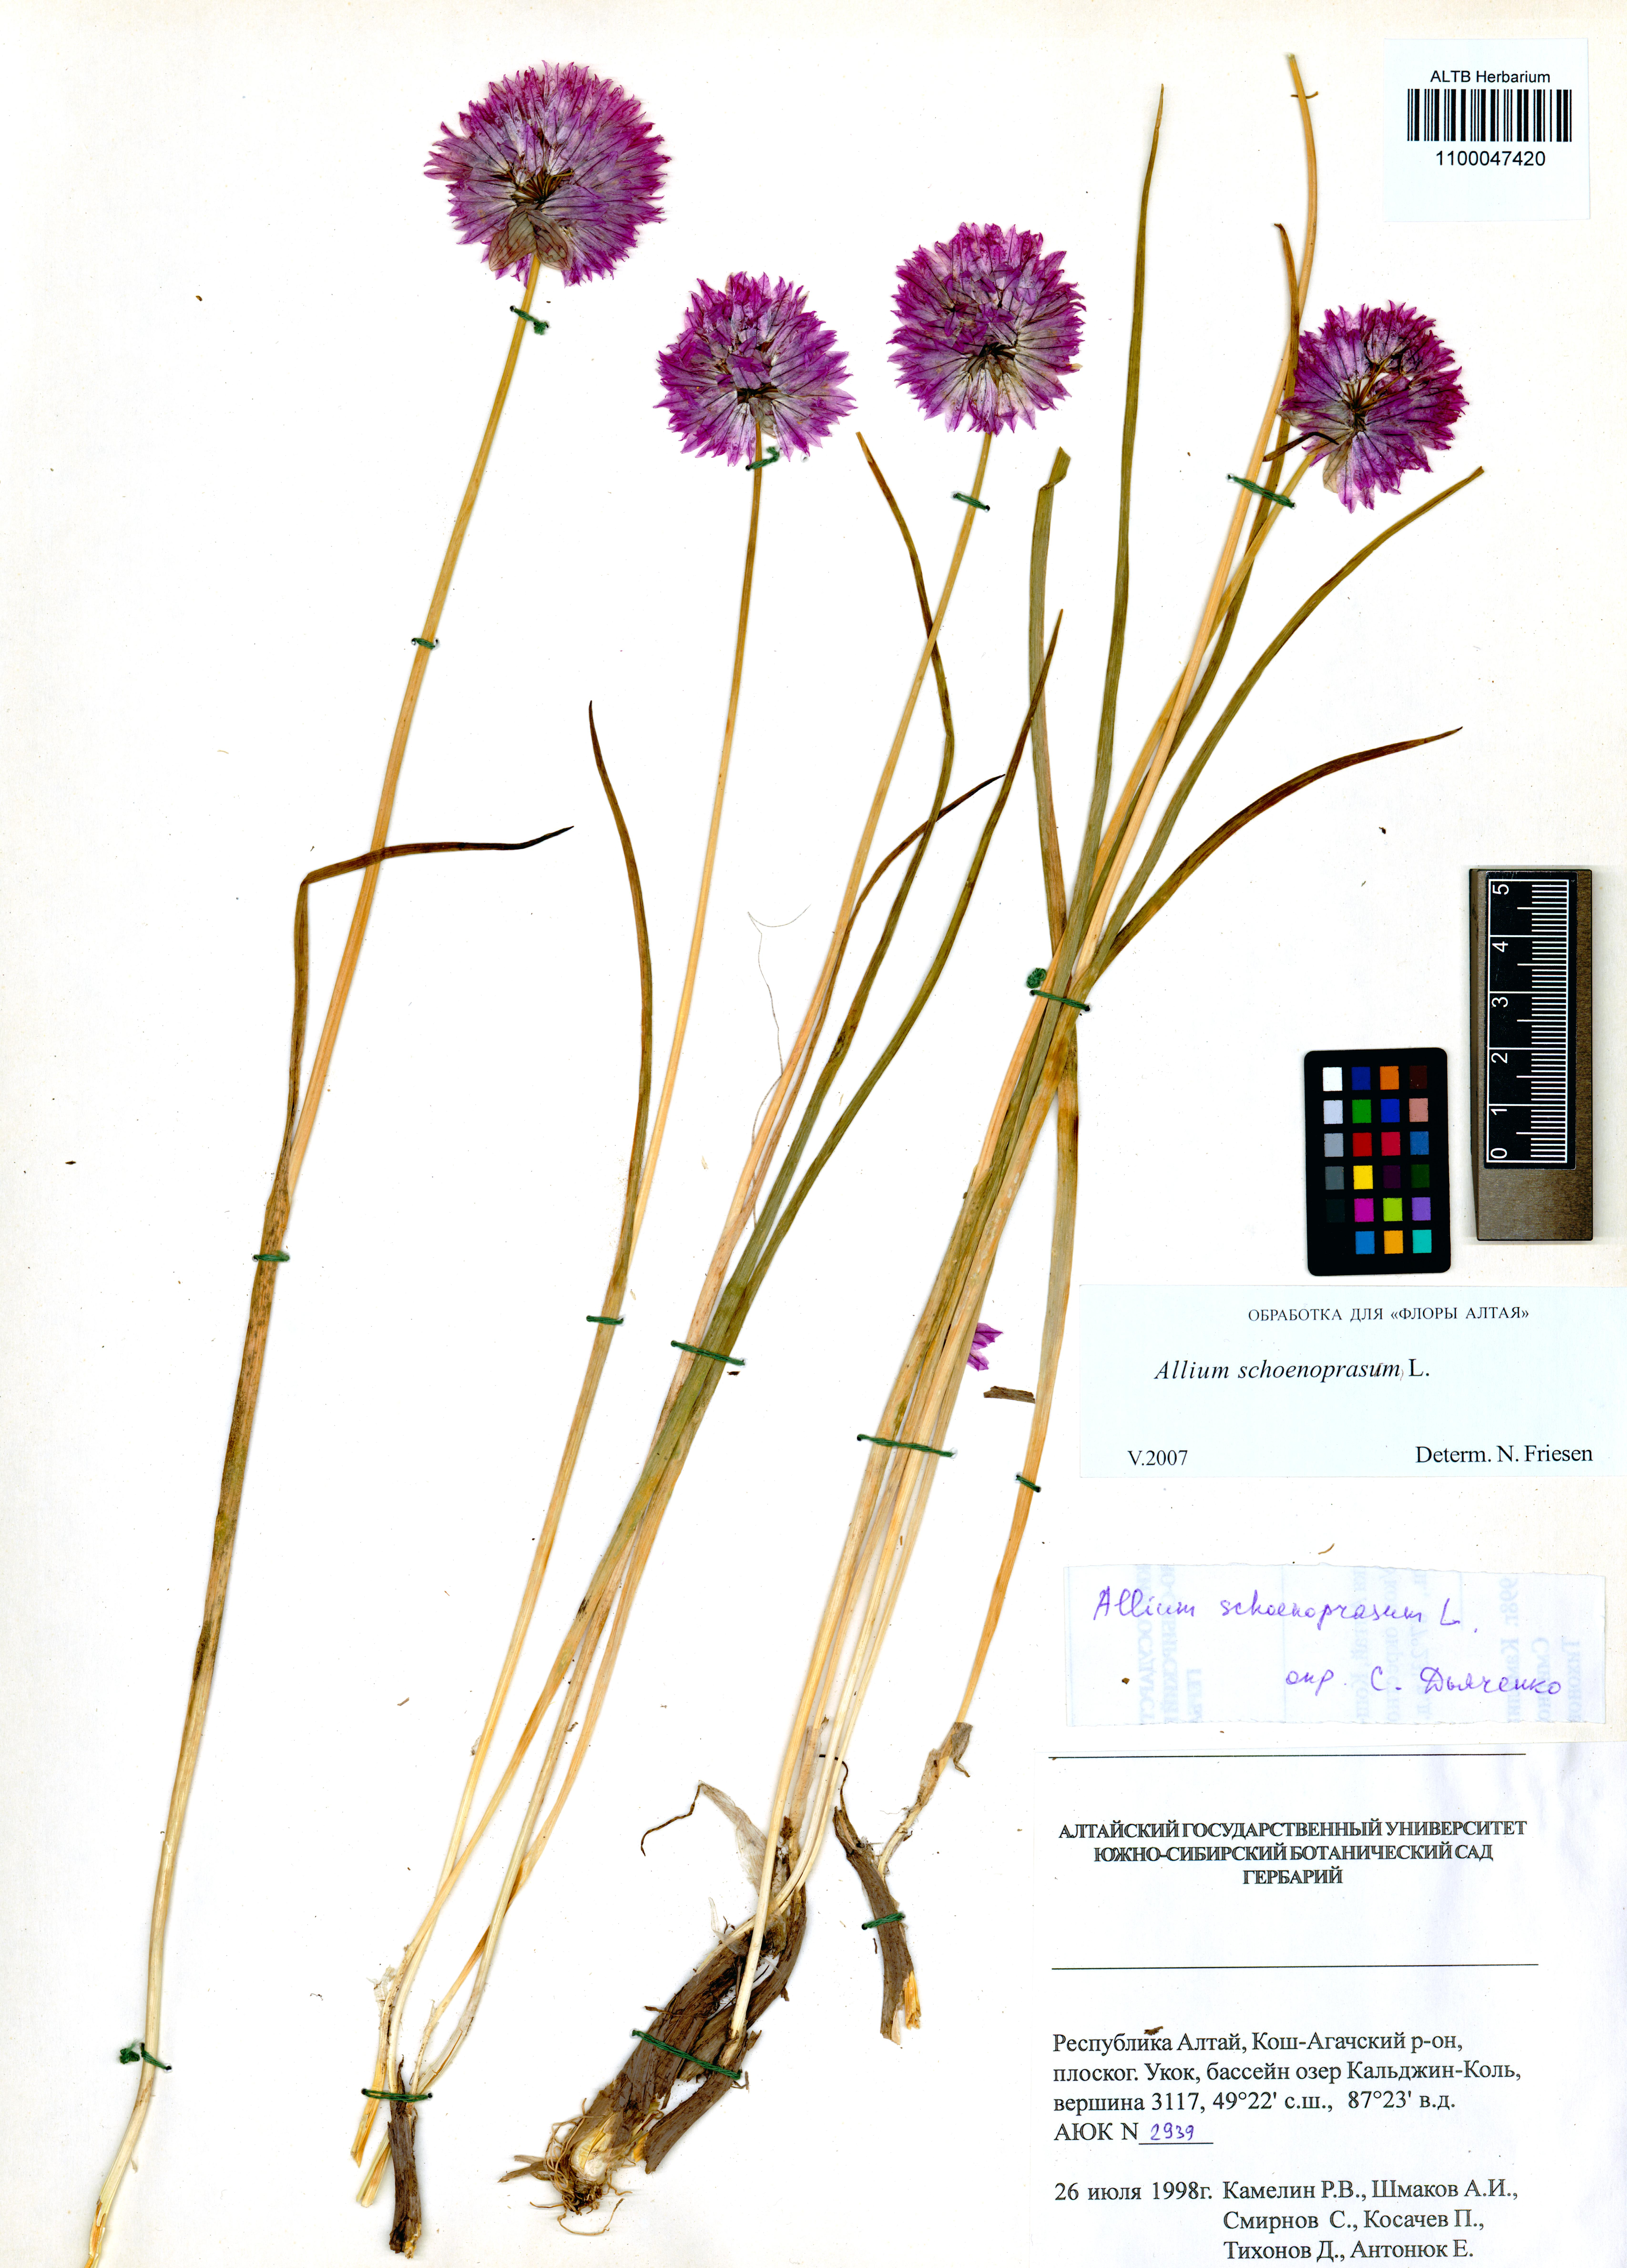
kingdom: Plantae
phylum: Tracheophyta
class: Liliopsida
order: Asparagales
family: Amaryllidaceae
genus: Allium
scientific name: Allium schoenoprasum
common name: Chives
